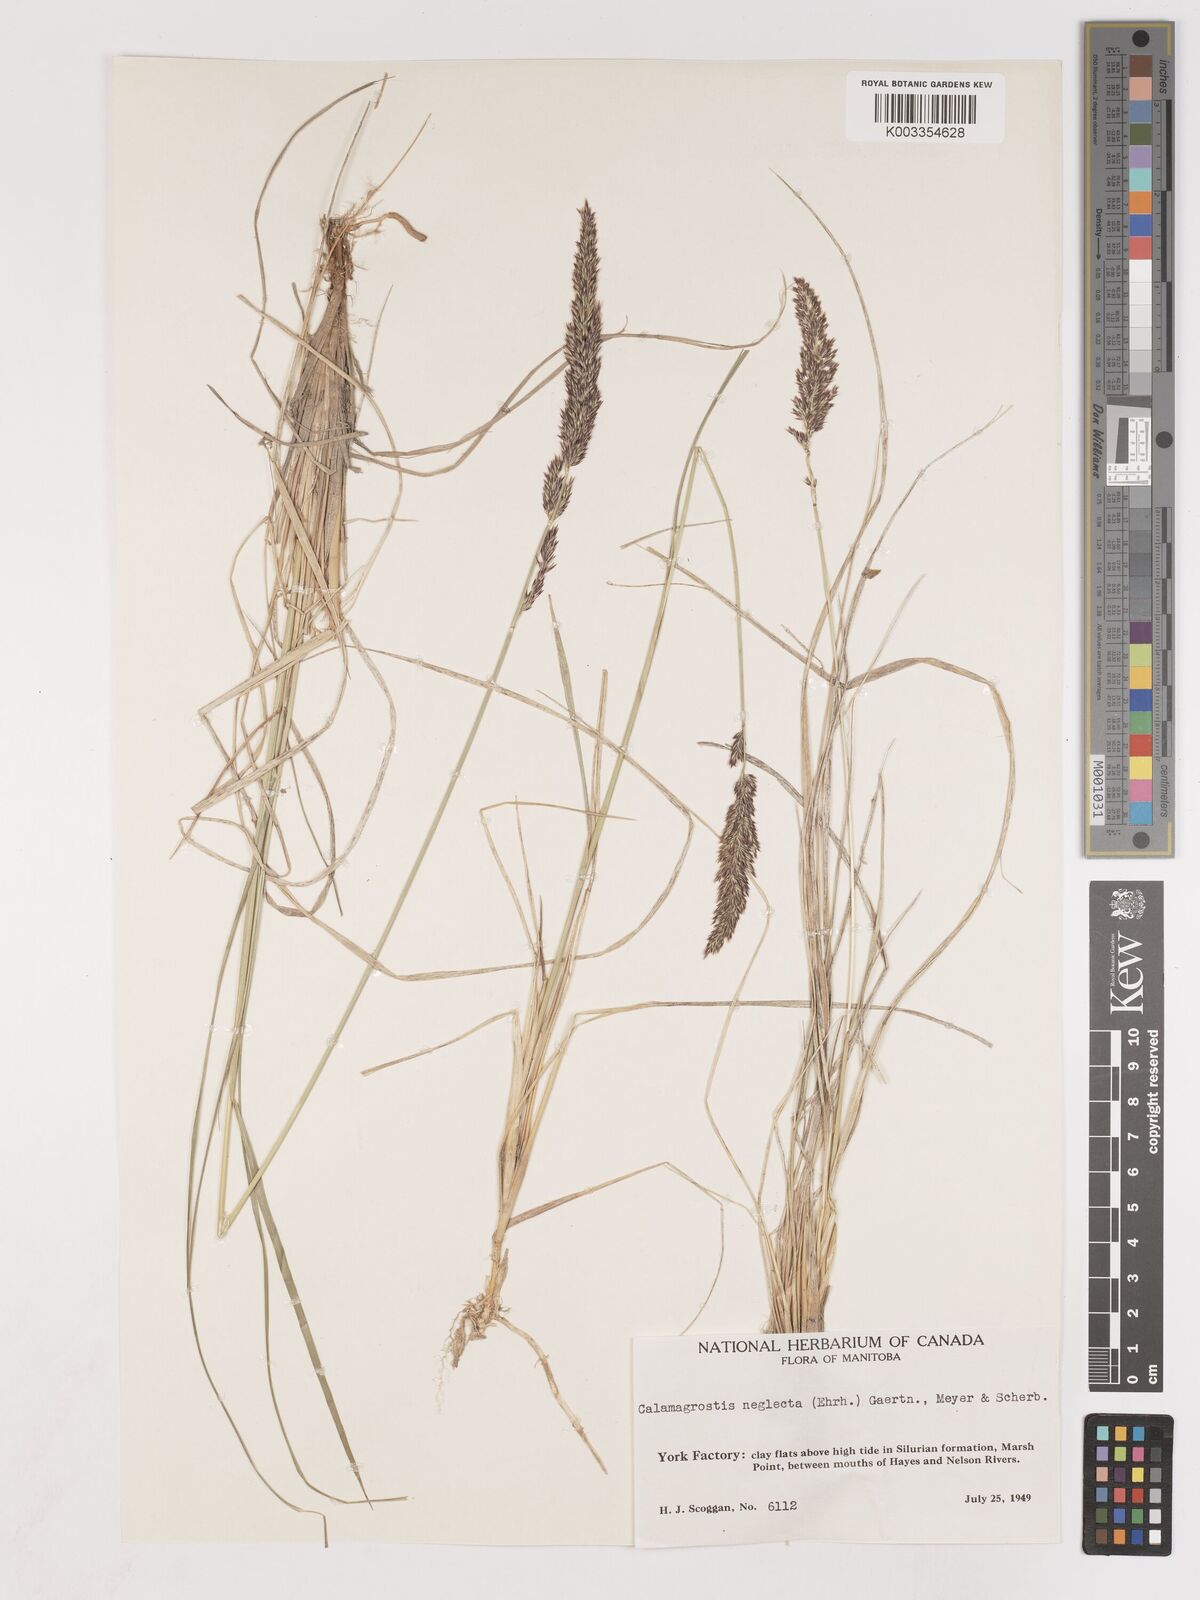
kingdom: Plantae
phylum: Tracheophyta
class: Liliopsida
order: Poales
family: Poaceae
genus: Calamagrostis
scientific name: Calamagrostis nutkaensis
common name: Pacific reed grass
